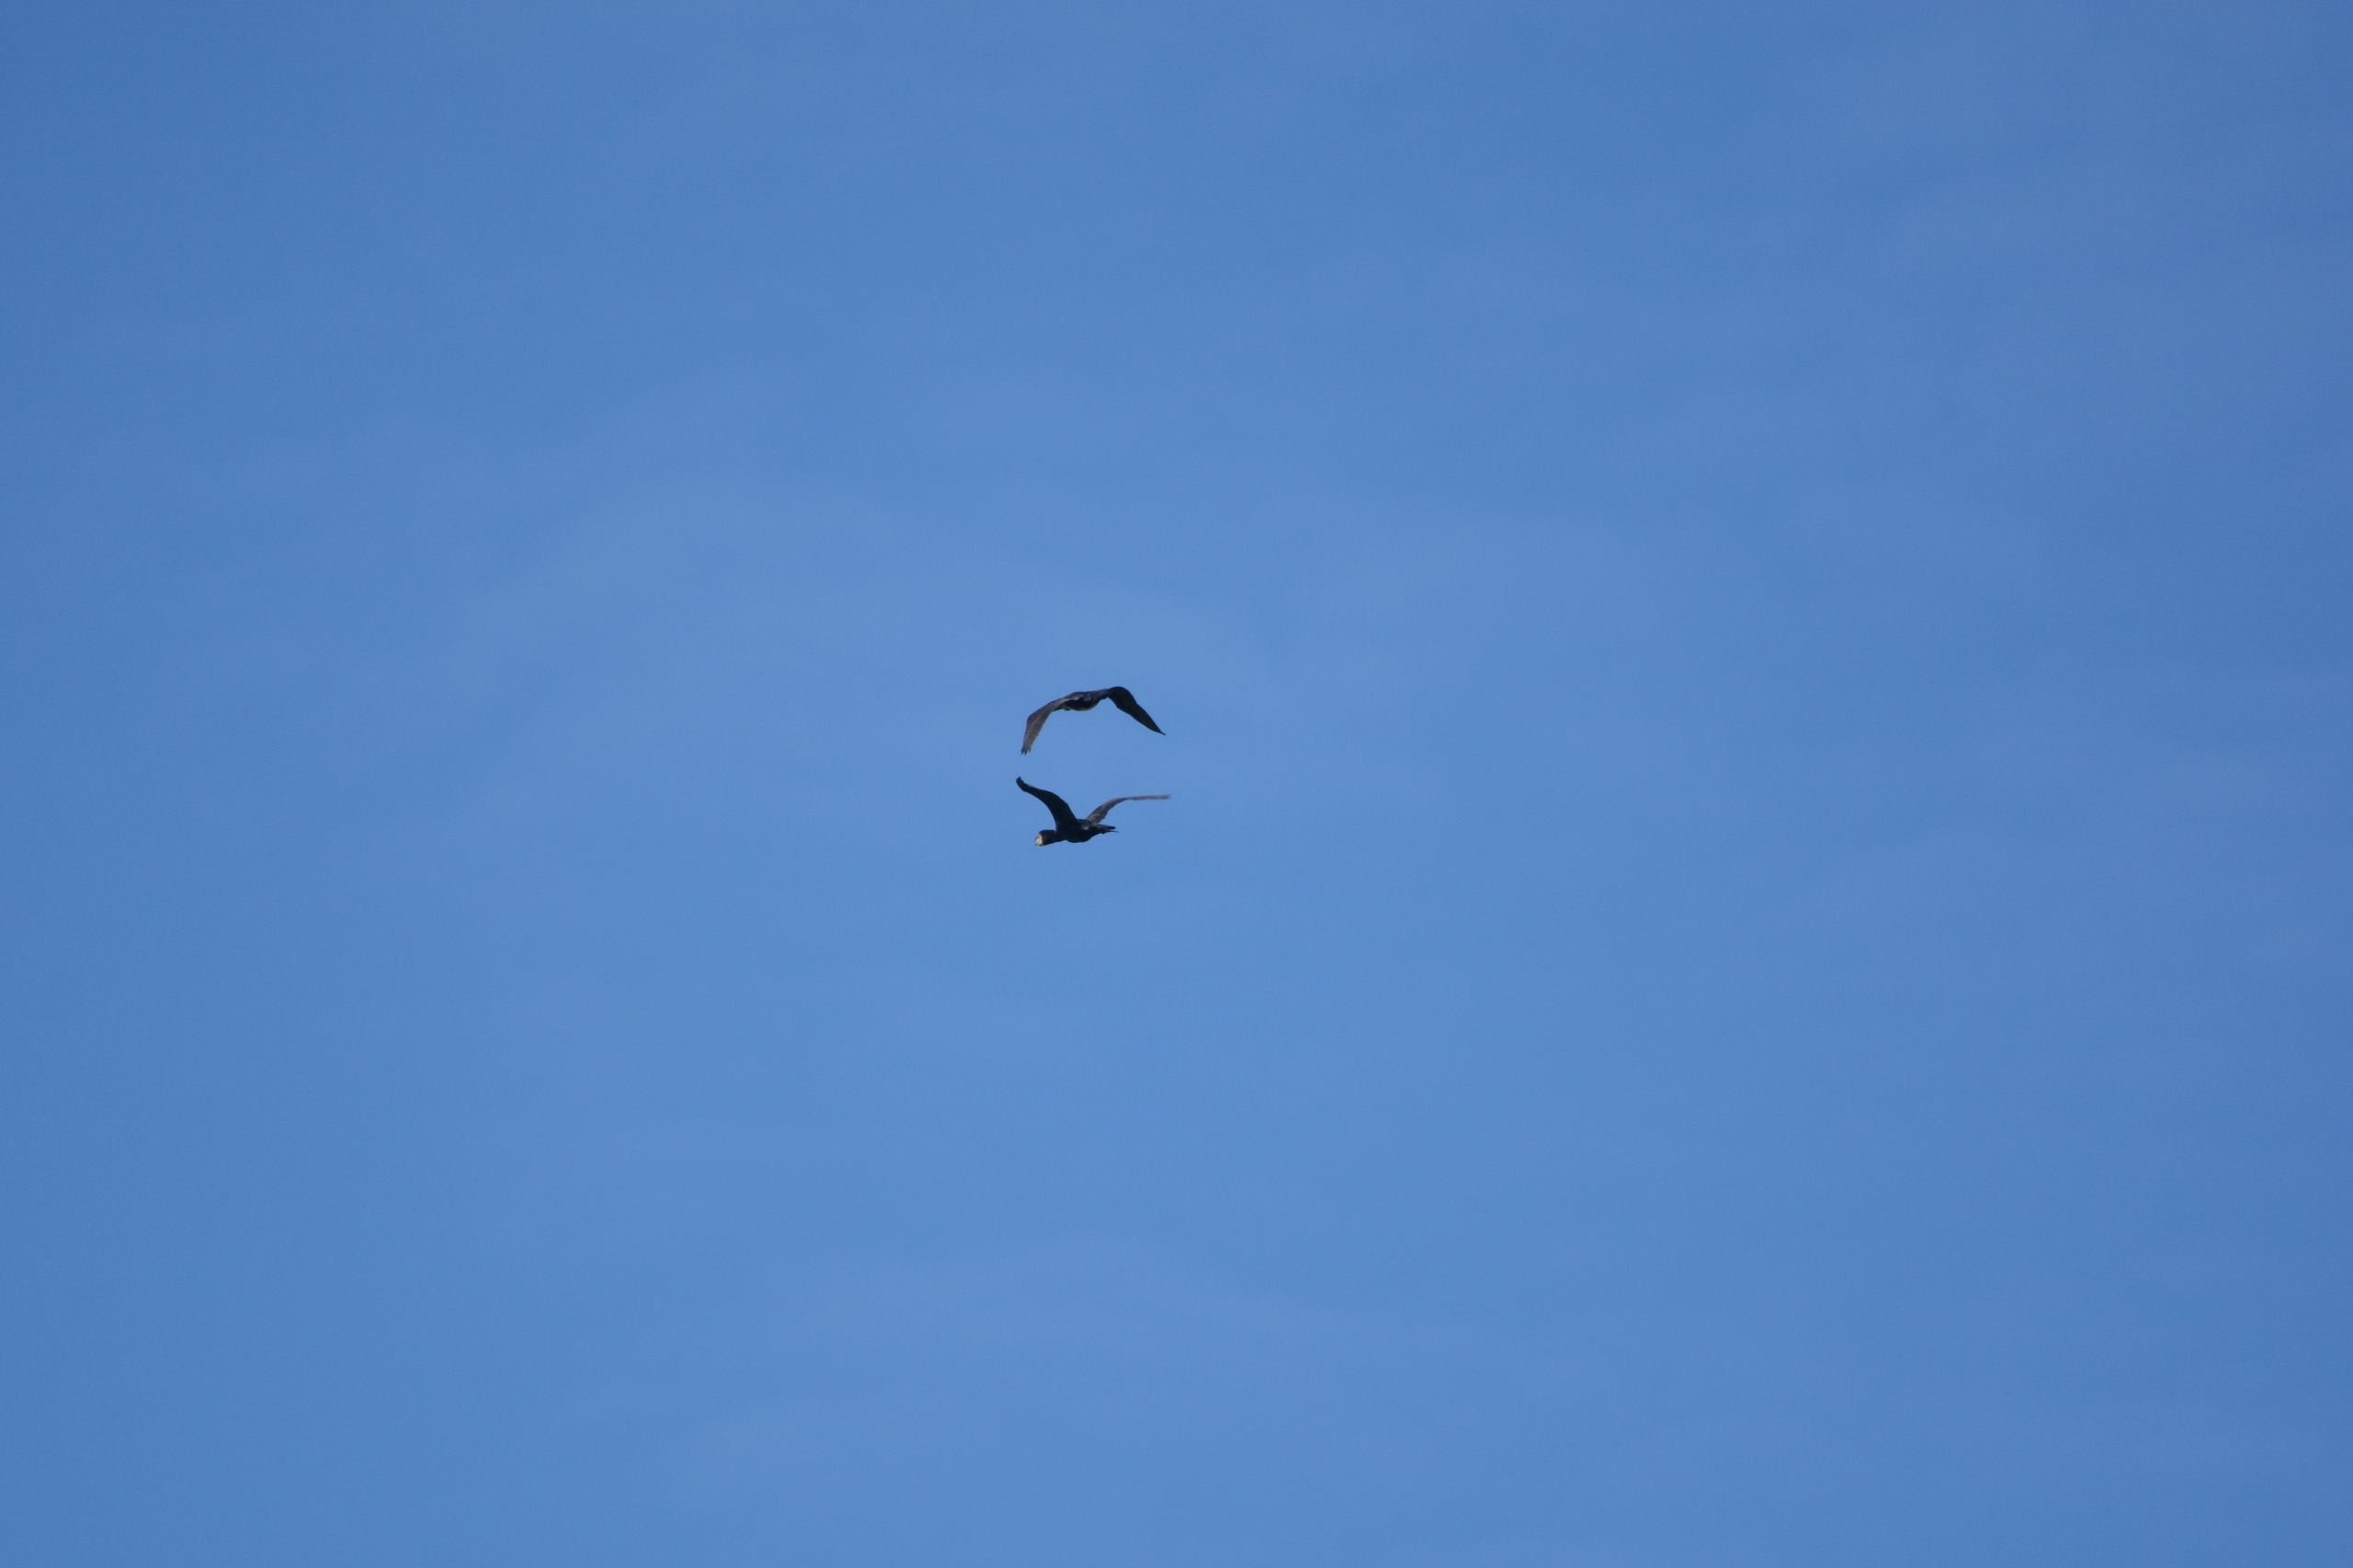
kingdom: Animalia
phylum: Chordata
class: Aves
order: Suliformes
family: Phalacrocoracidae
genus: Phalacrocorax
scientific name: Phalacrocorax carbo
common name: Skarv
